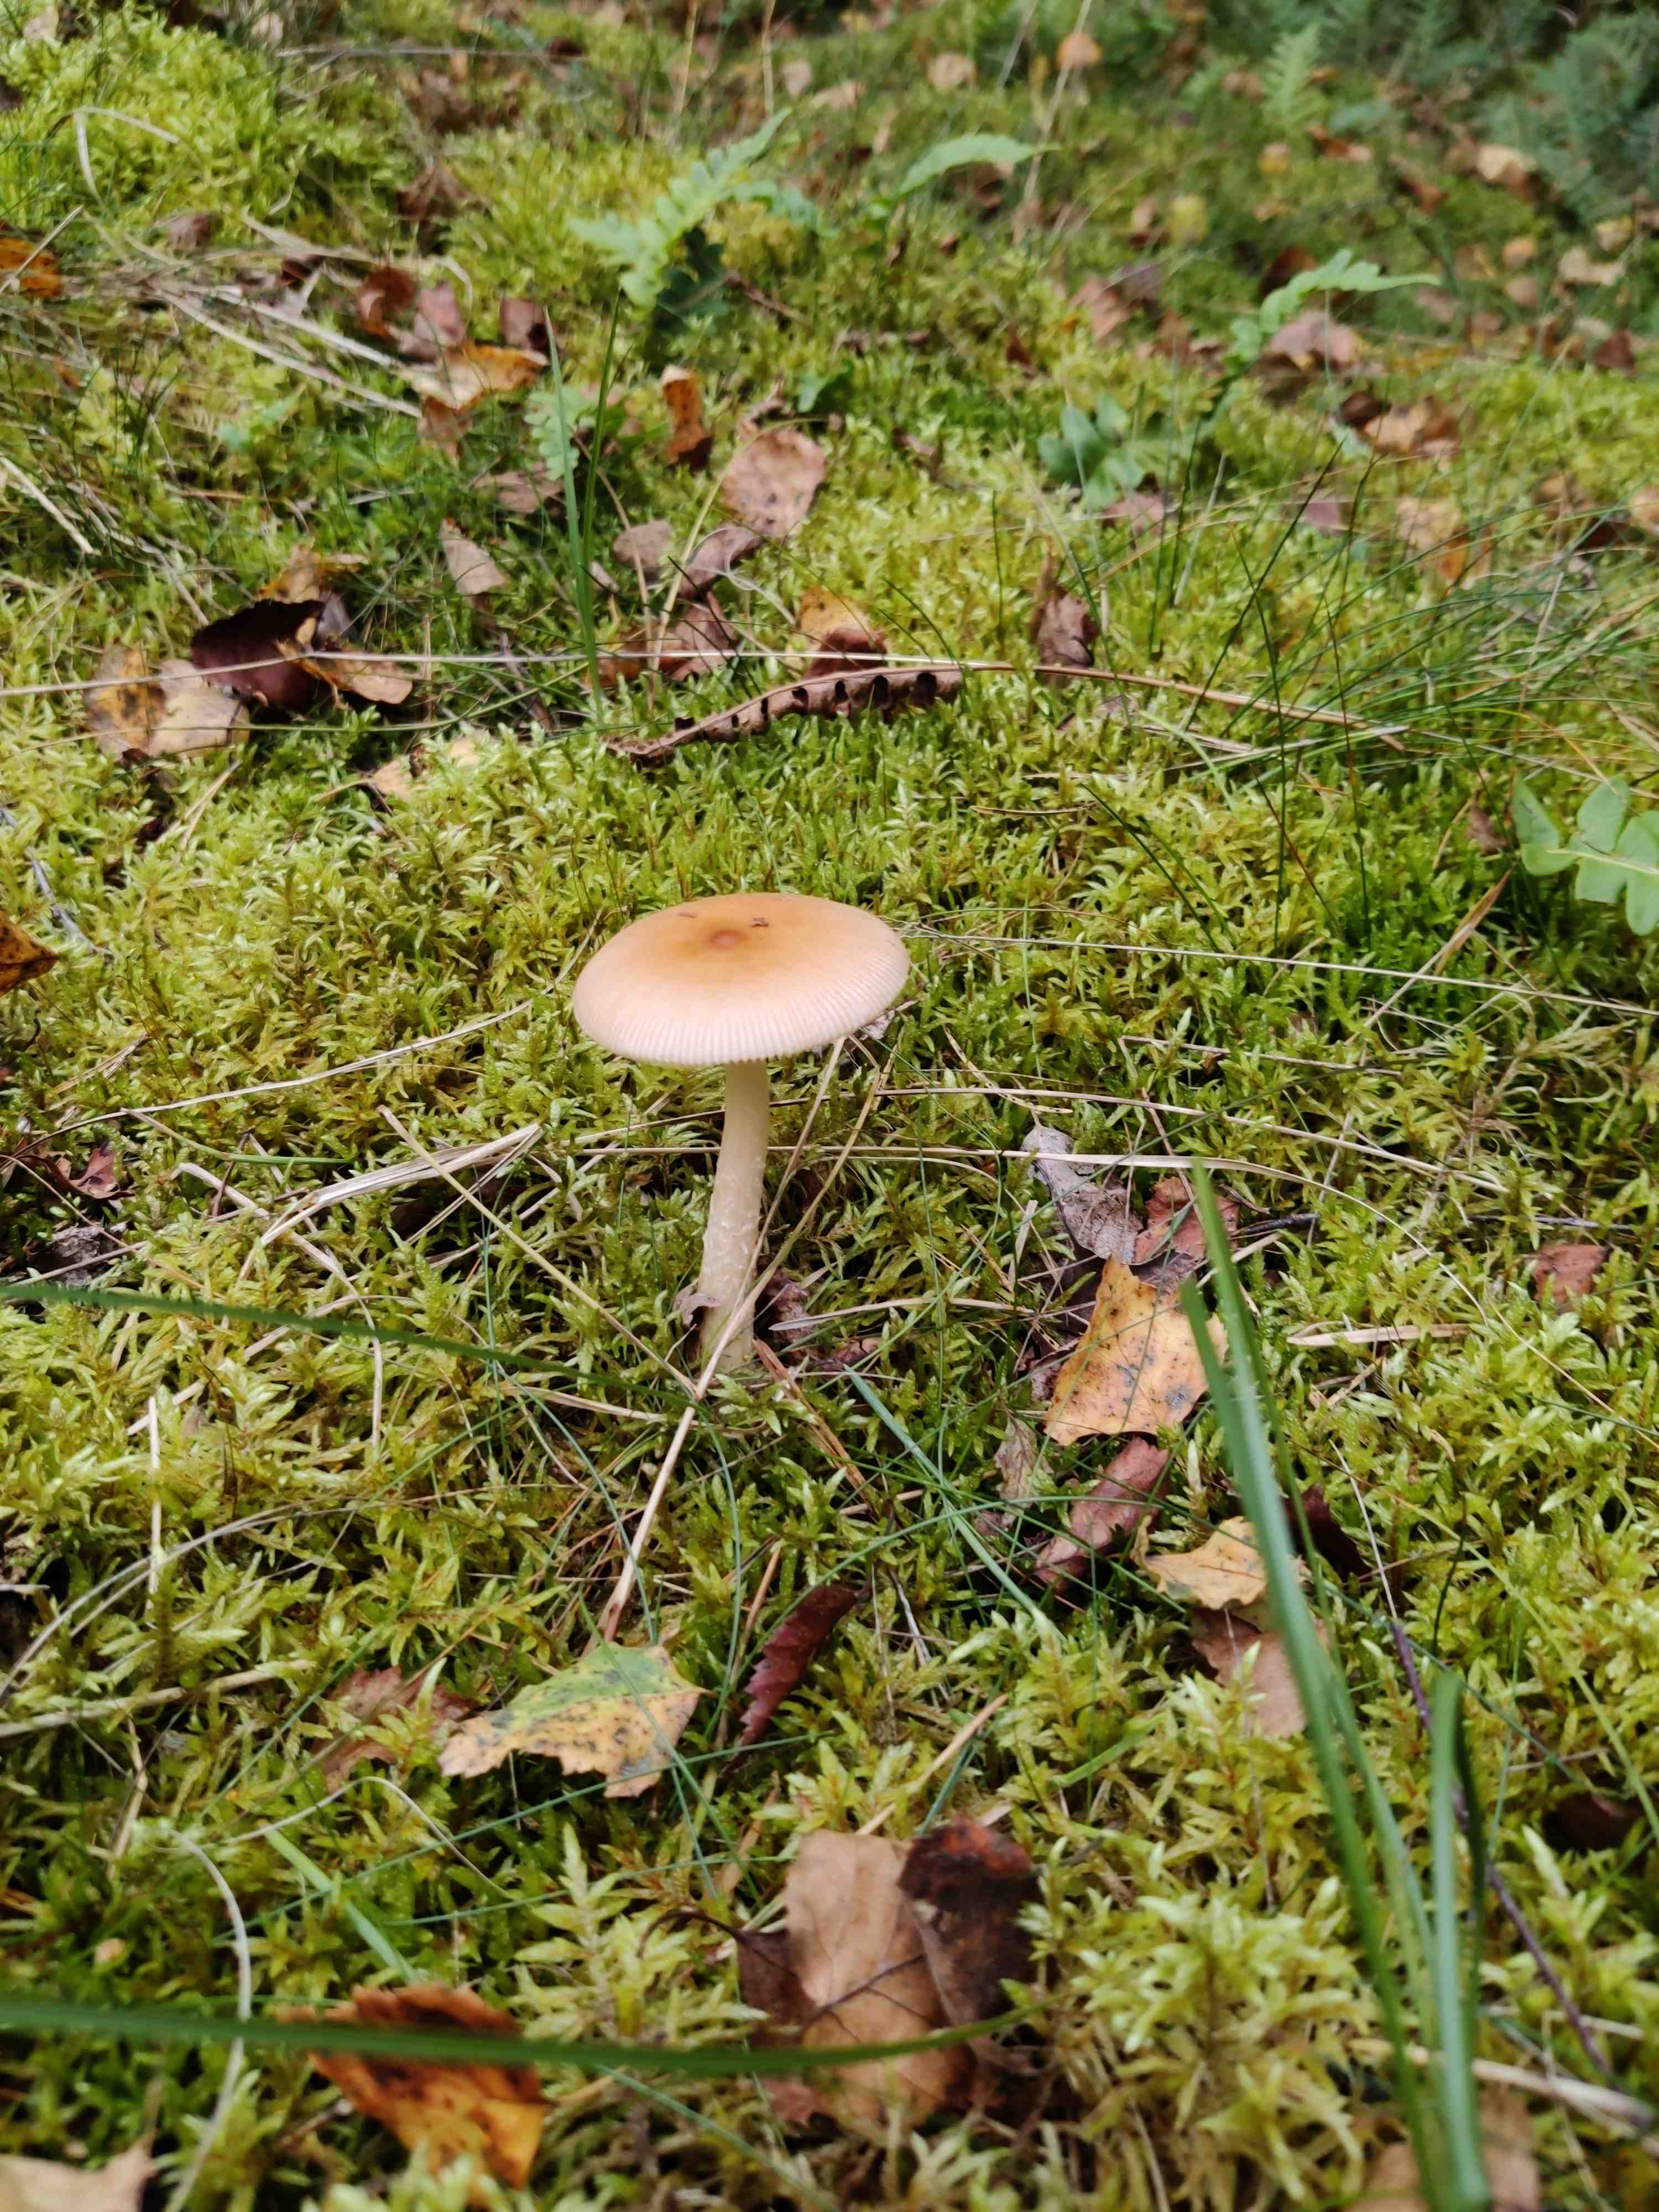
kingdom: Fungi
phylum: Basidiomycota
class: Agaricomycetes
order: Agaricales
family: Amanitaceae
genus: Amanita
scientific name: Amanita fulva
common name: brun kam-fluesvamp
